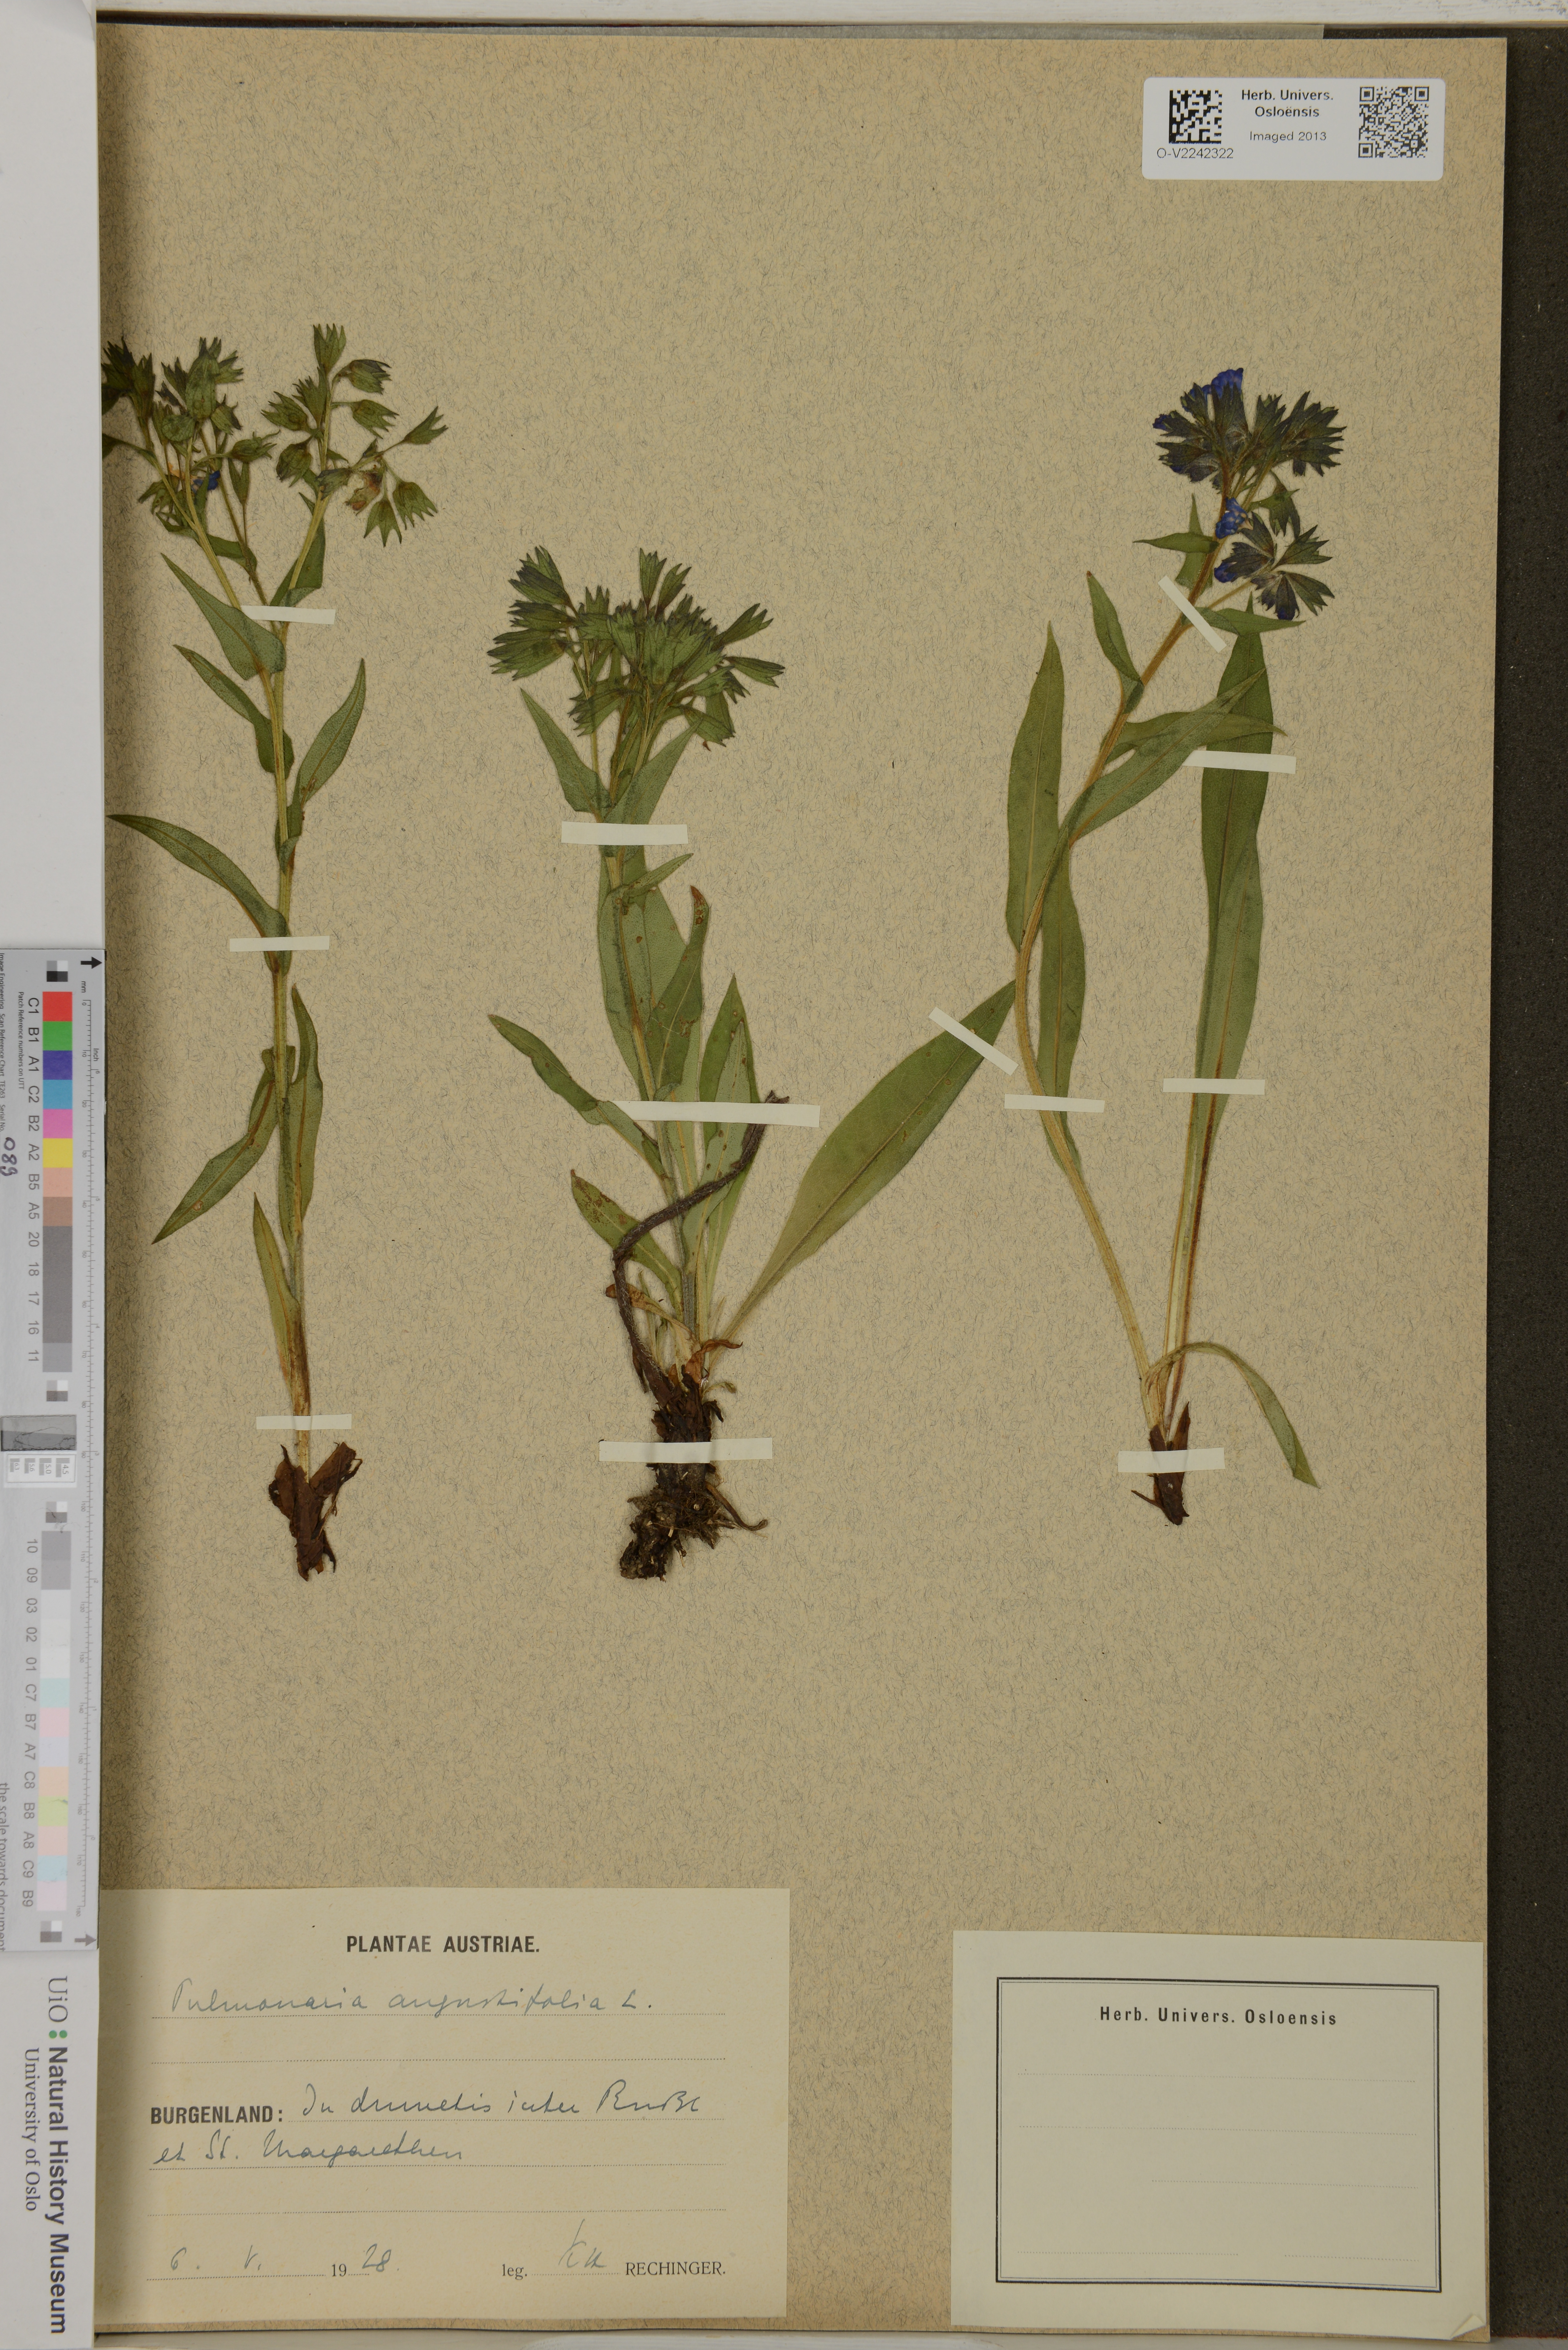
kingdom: Plantae
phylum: Tracheophyta
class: Magnoliopsida
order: Boraginales
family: Boraginaceae
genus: Pulmonaria
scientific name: Pulmonaria angustifolia
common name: Blue cowslip
